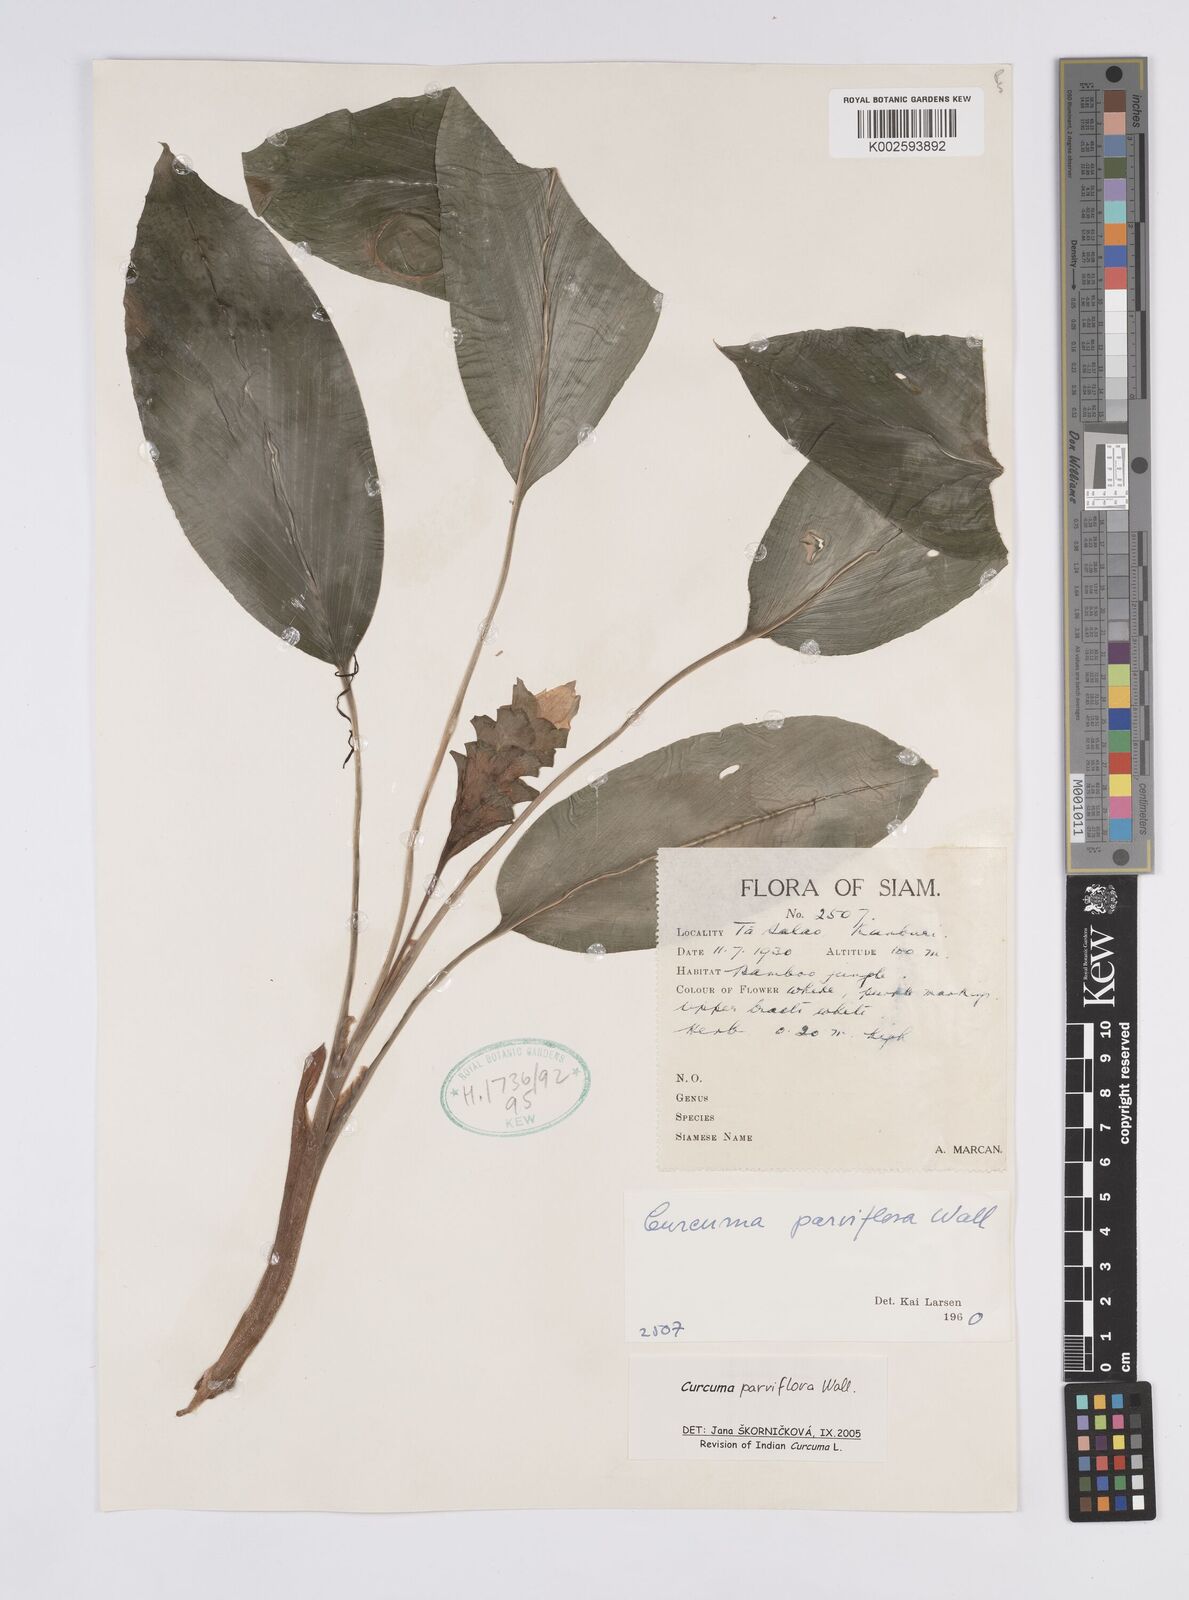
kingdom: Plantae
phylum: Tracheophyta
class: Liliopsida
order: Zingiberales
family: Zingiberaceae
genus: Curcuma
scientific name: Curcuma parviflora
